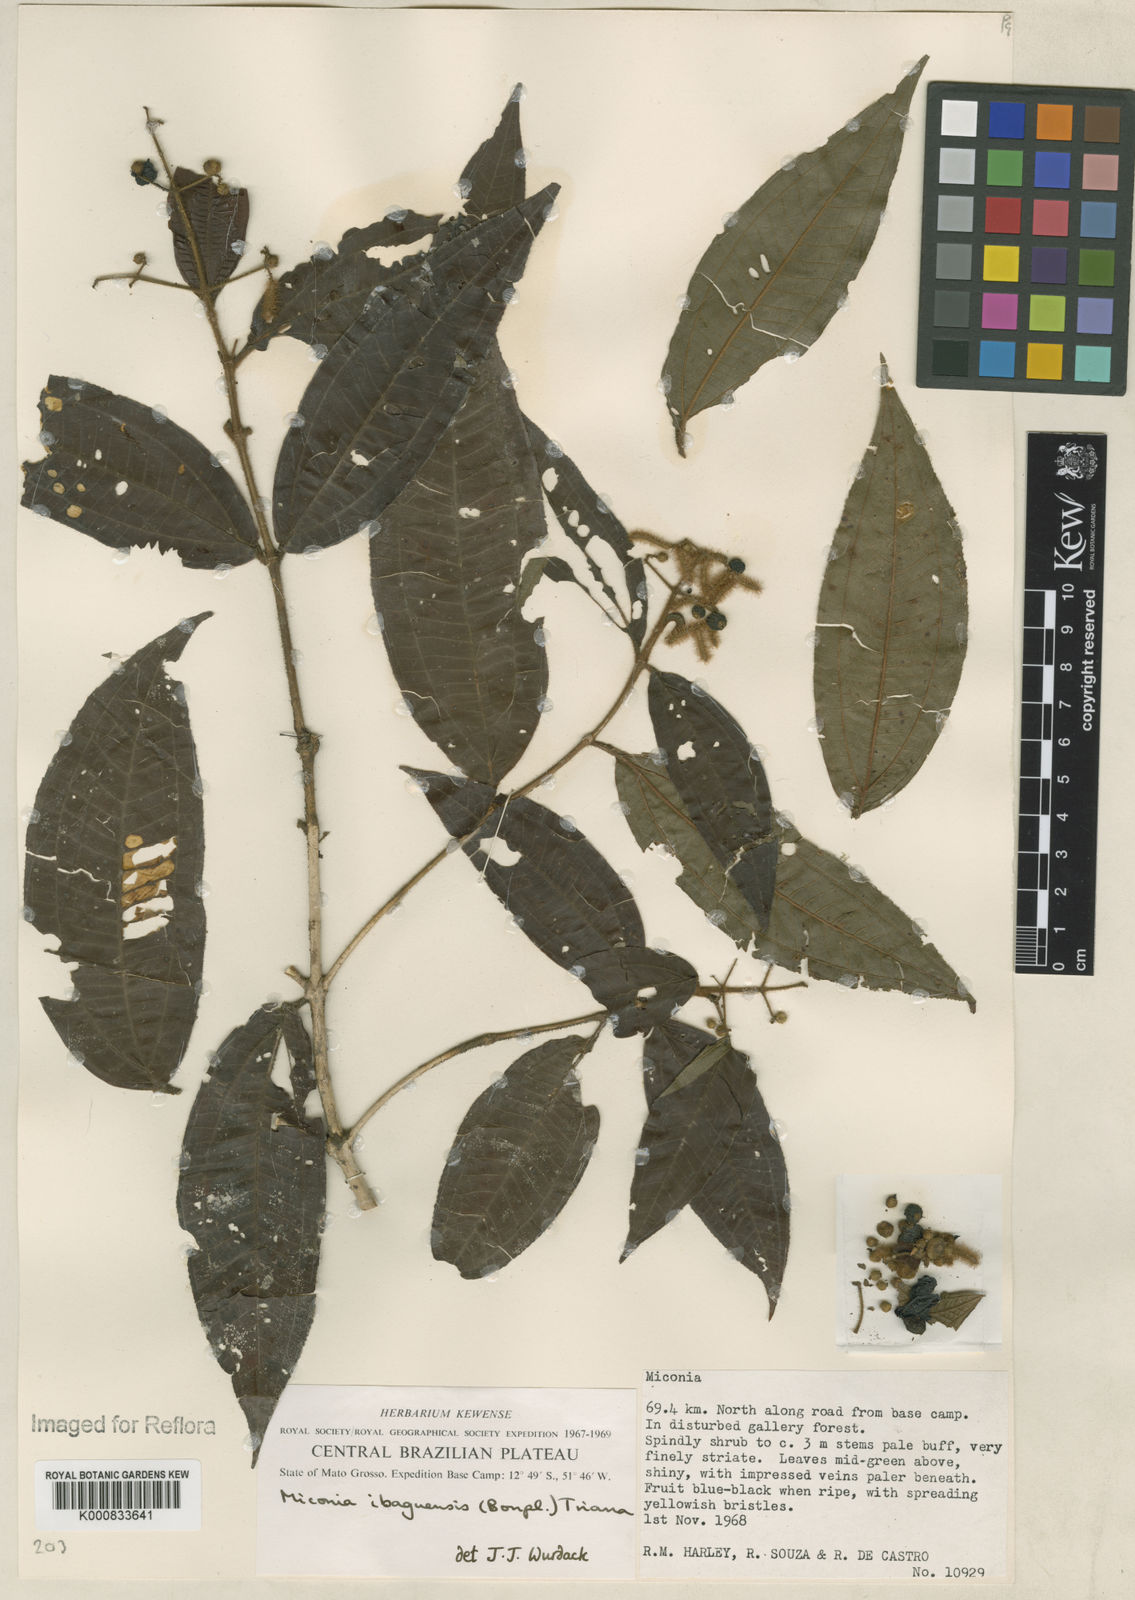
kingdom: Plantae
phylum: Tracheophyta
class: Magnoliopsida
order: Myrtales
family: Melastomataceae
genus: Miconia
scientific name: Miconia ibaguensis
